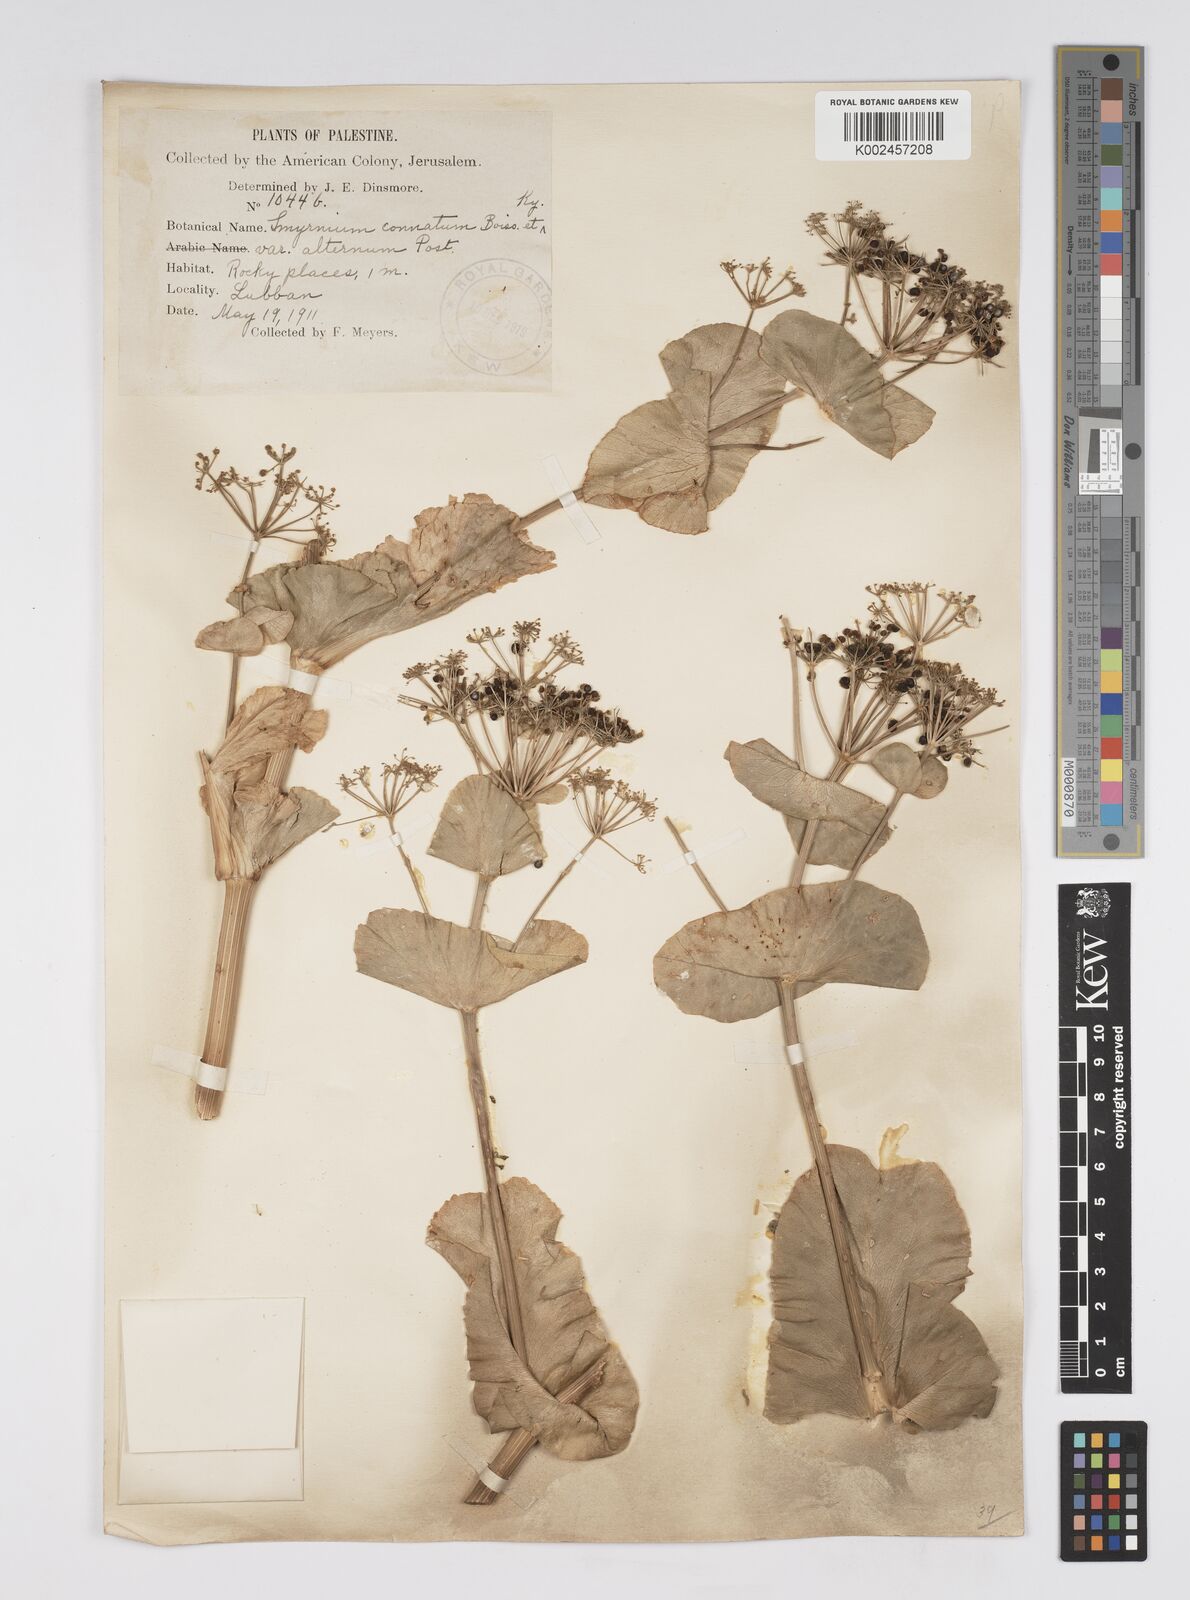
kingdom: Plantae
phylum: Tracheophyta
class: Magnoliopsida
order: Apiales
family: Apiaceae
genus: Smyrnium
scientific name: Smyrnium connatum
